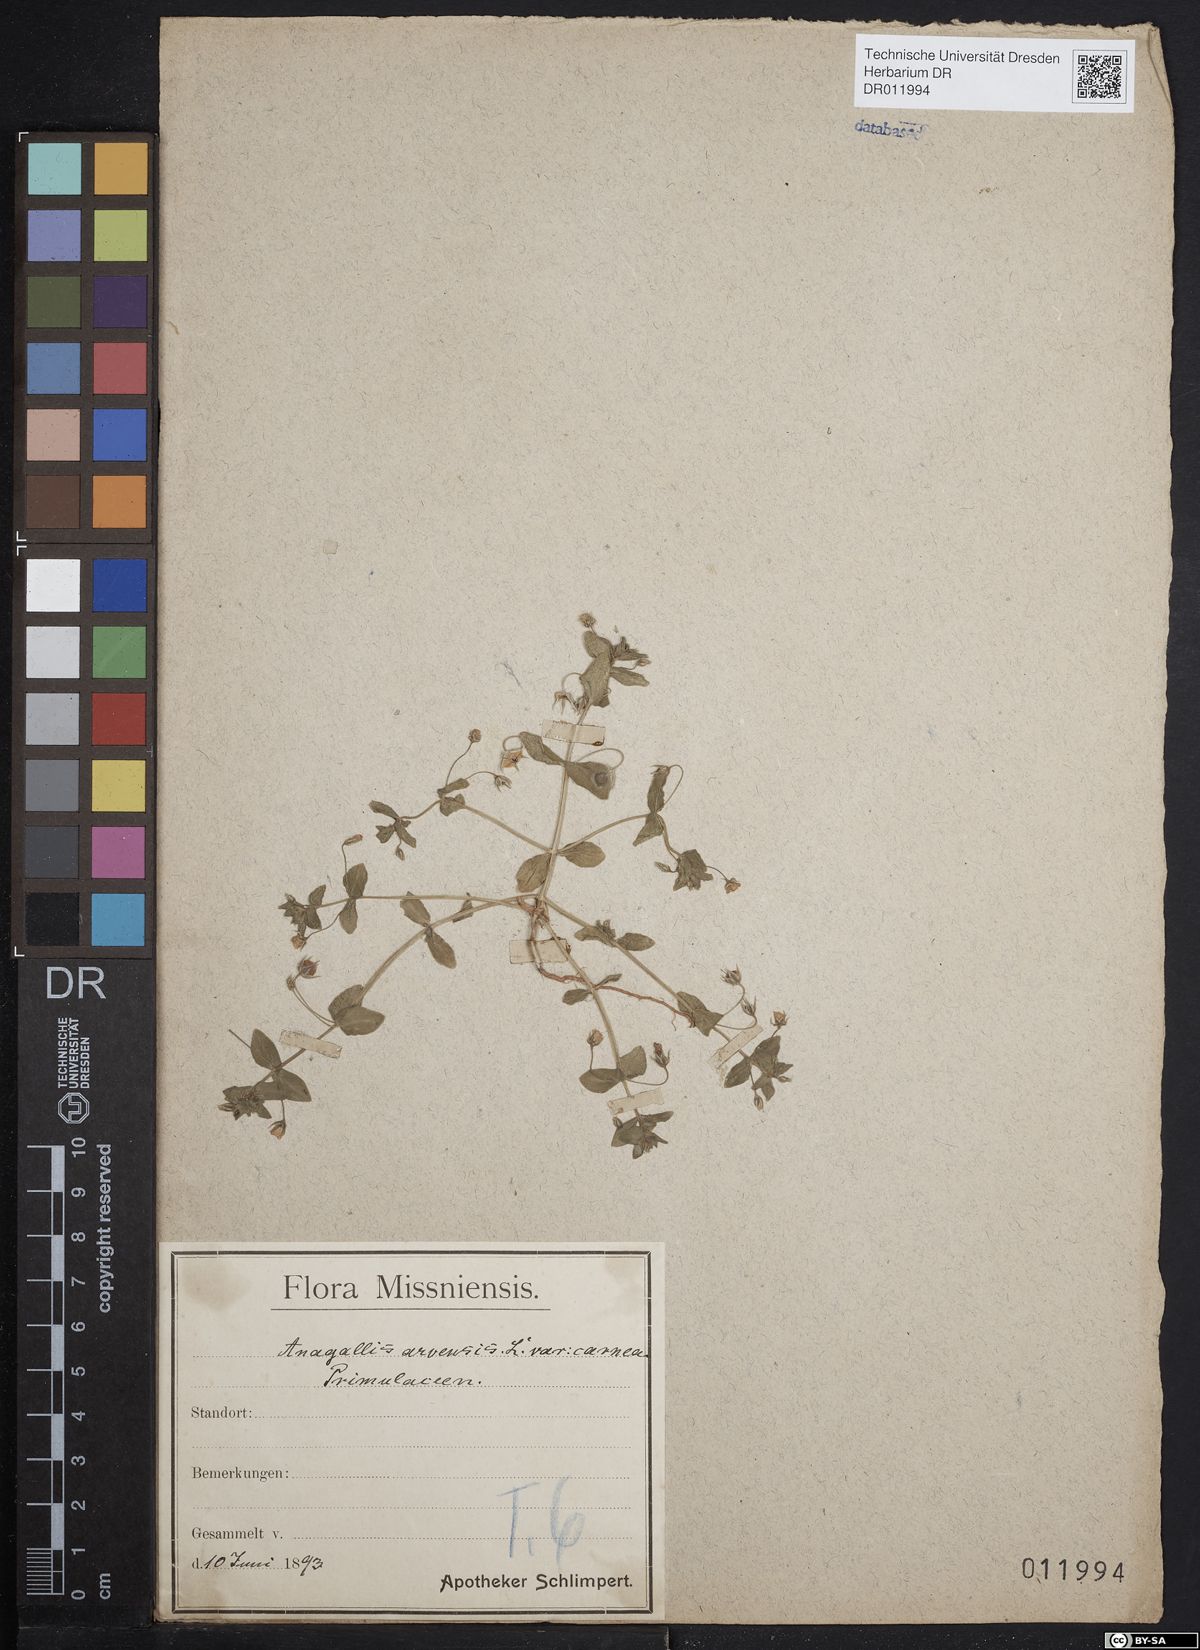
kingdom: Plantae
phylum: Tracheophyta
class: Magnoliopsida
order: Ericales
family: Primulaceae
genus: Lysimachia
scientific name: Lysimachia arvensis
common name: Scarlet pimpernel
